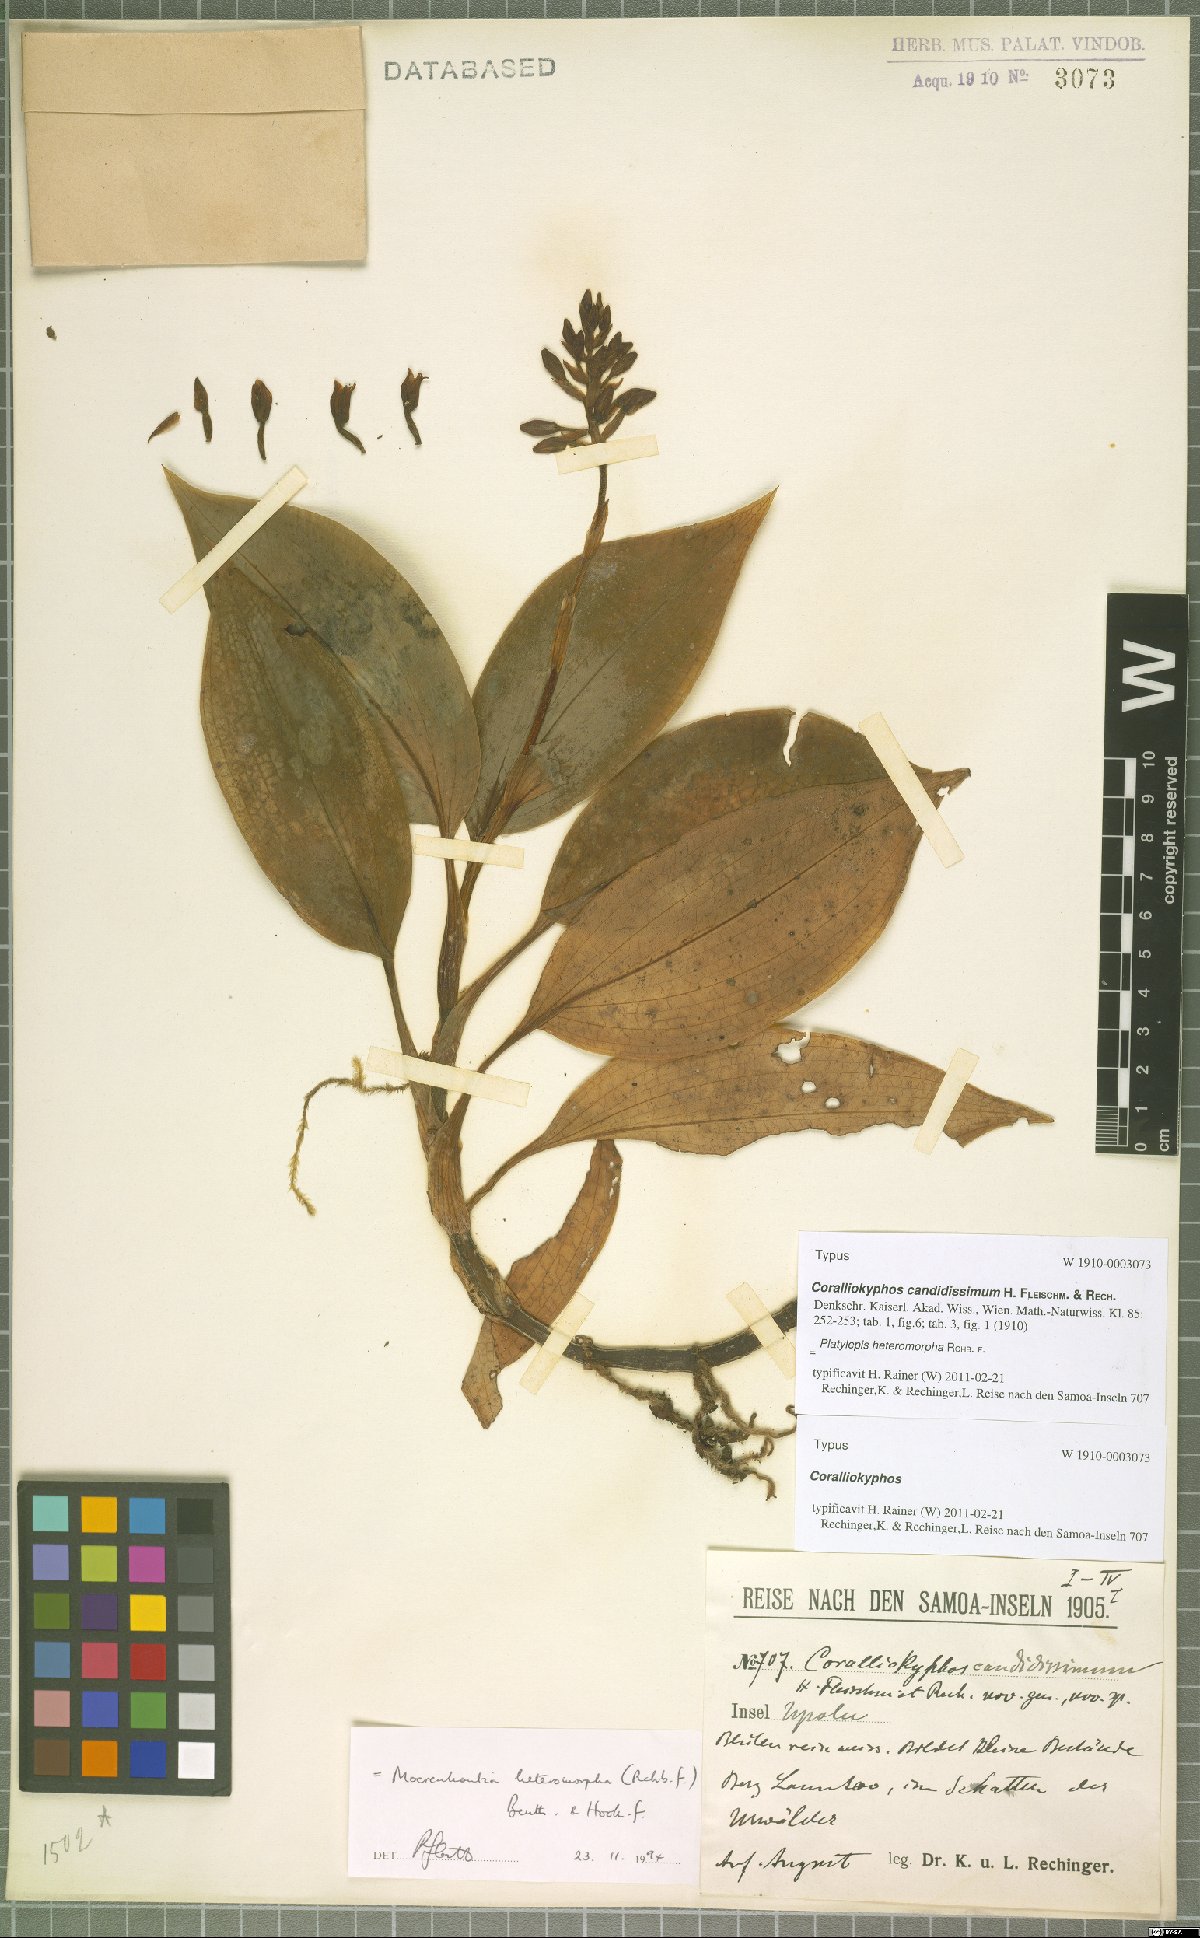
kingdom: Plantae
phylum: Tracheophyta
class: Liliopsida
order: Asparagales
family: Orchidaceae
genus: Platylepis
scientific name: Platylepis heteromorpha
